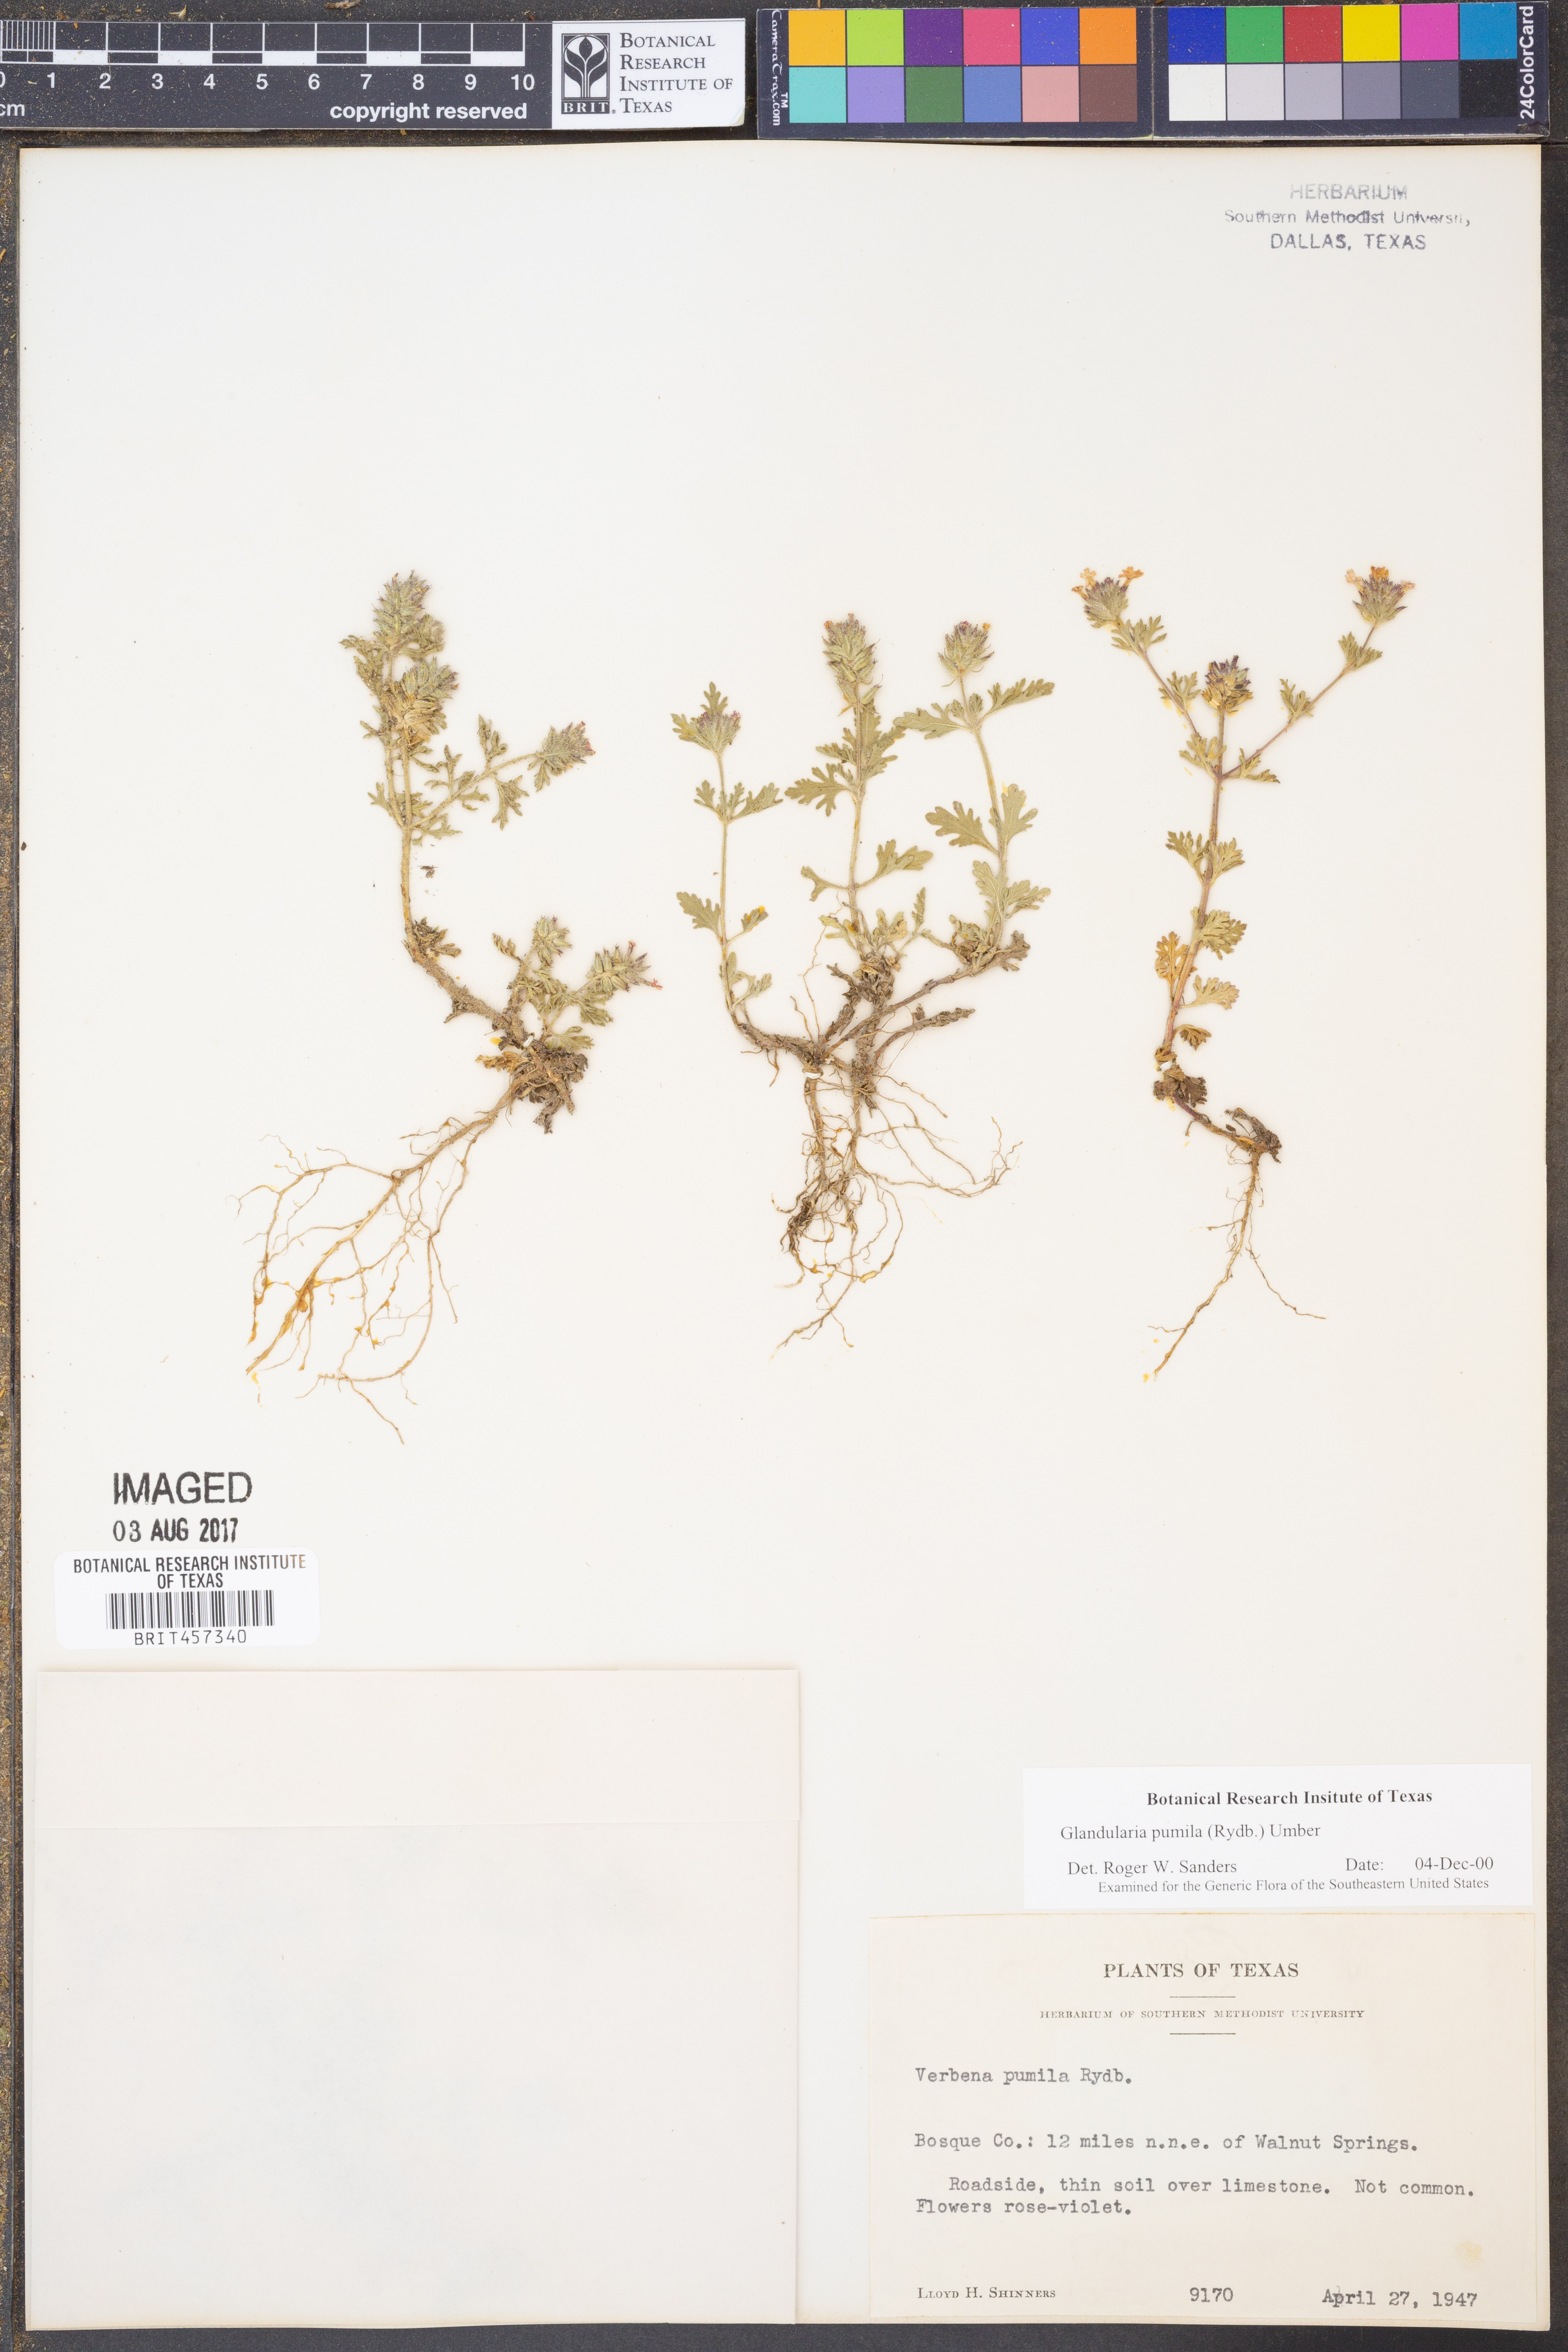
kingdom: Plantae
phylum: Tracheophyta
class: Magnoliopsida
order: Lamiales
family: Verbenaceae
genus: Verbena
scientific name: Verbena pumila
